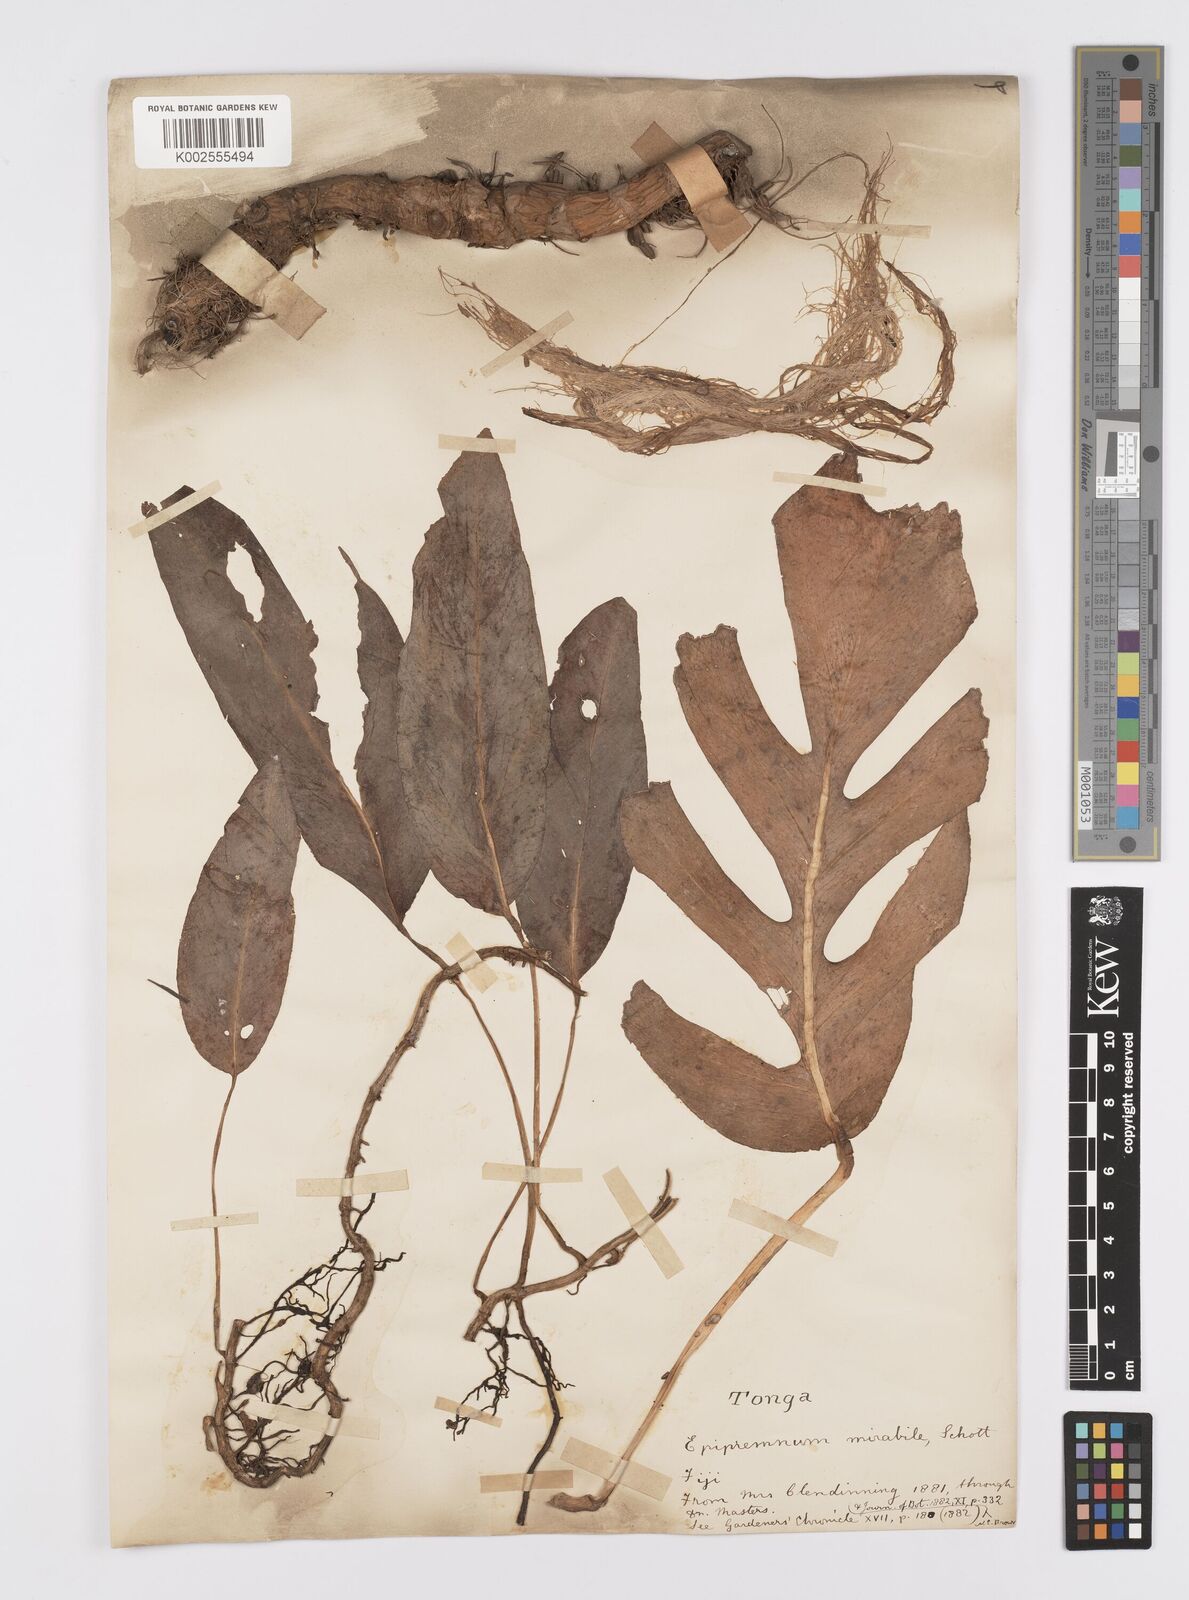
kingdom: Plantae
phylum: Tracheophyta
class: Liliopsida
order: Alismatales
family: Araceae
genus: Epipremnum
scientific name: Epipremnum pinnatum
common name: Centipede tongavine
